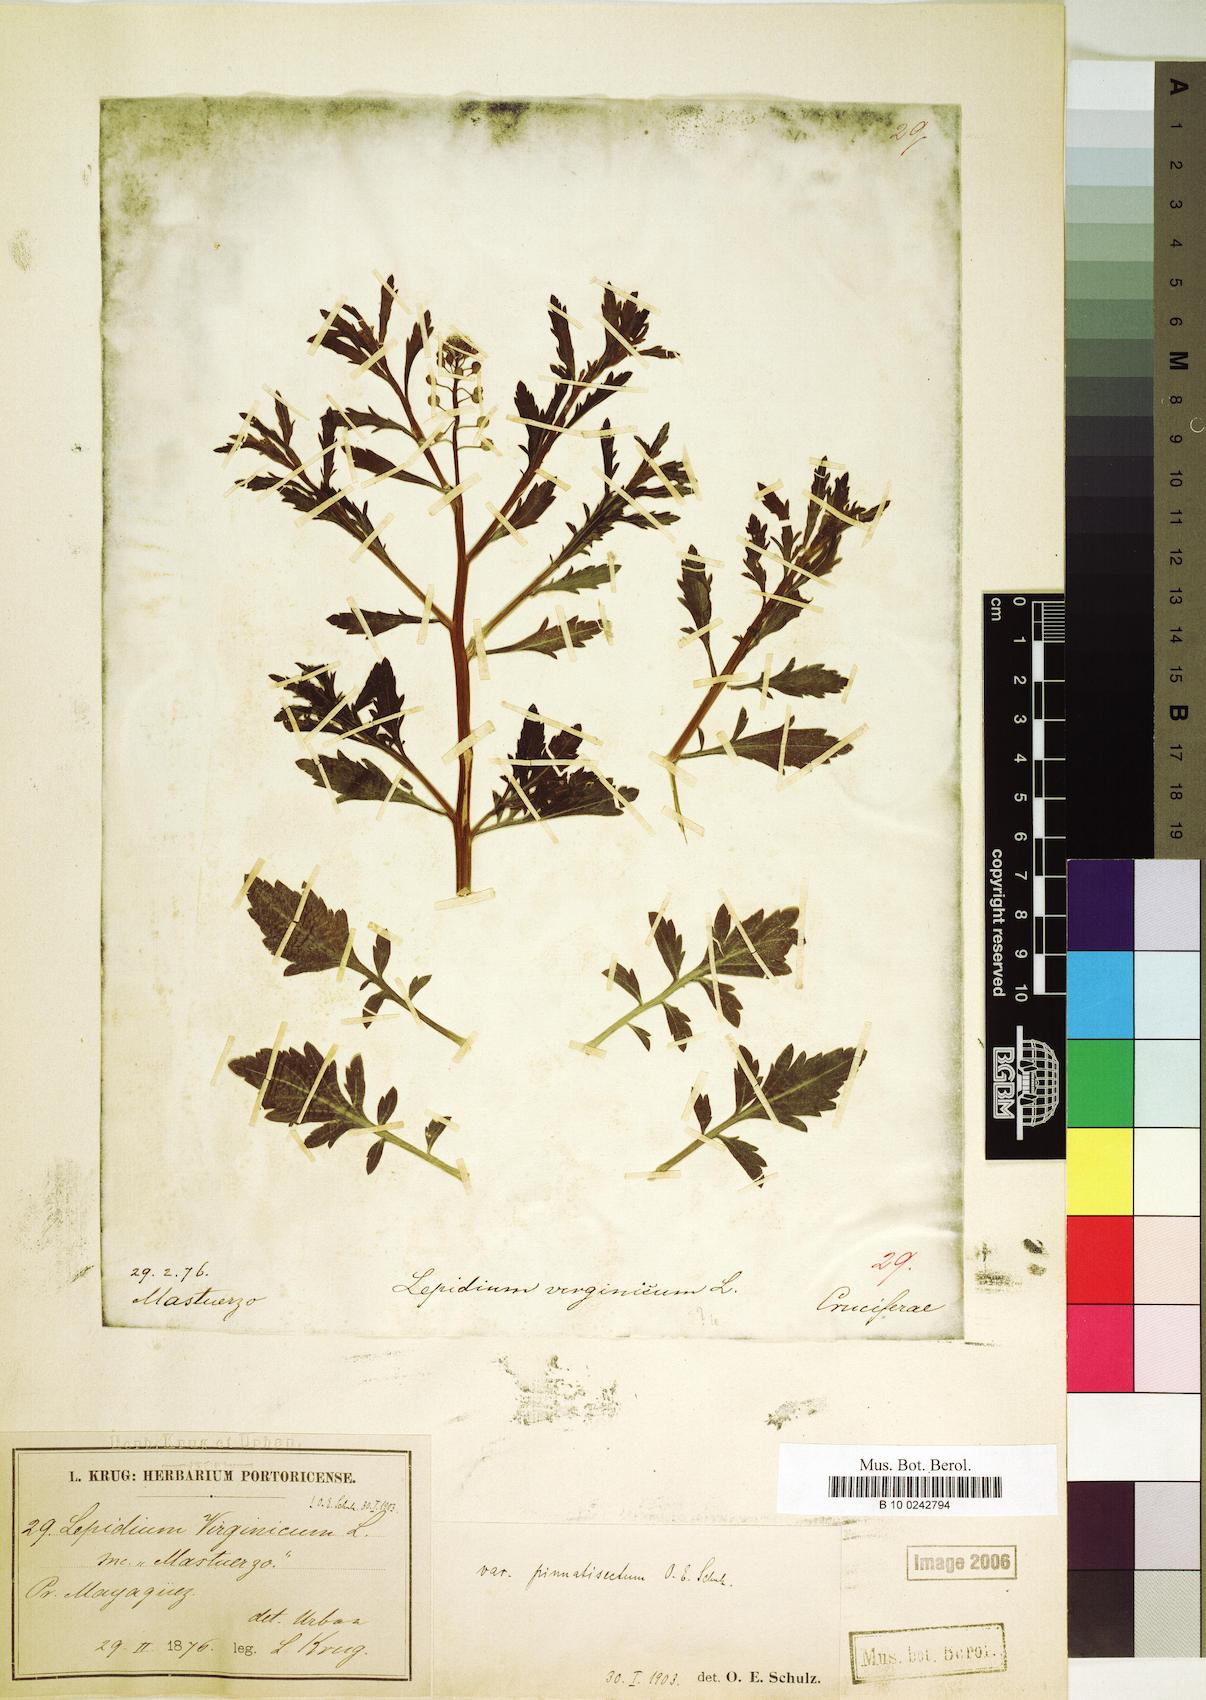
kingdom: Plantae
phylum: Tracheophyta
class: Magnoliopsida
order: Brassicales
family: Brassicaceae
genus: Lepidium
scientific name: Lepidium pinnatisectum
